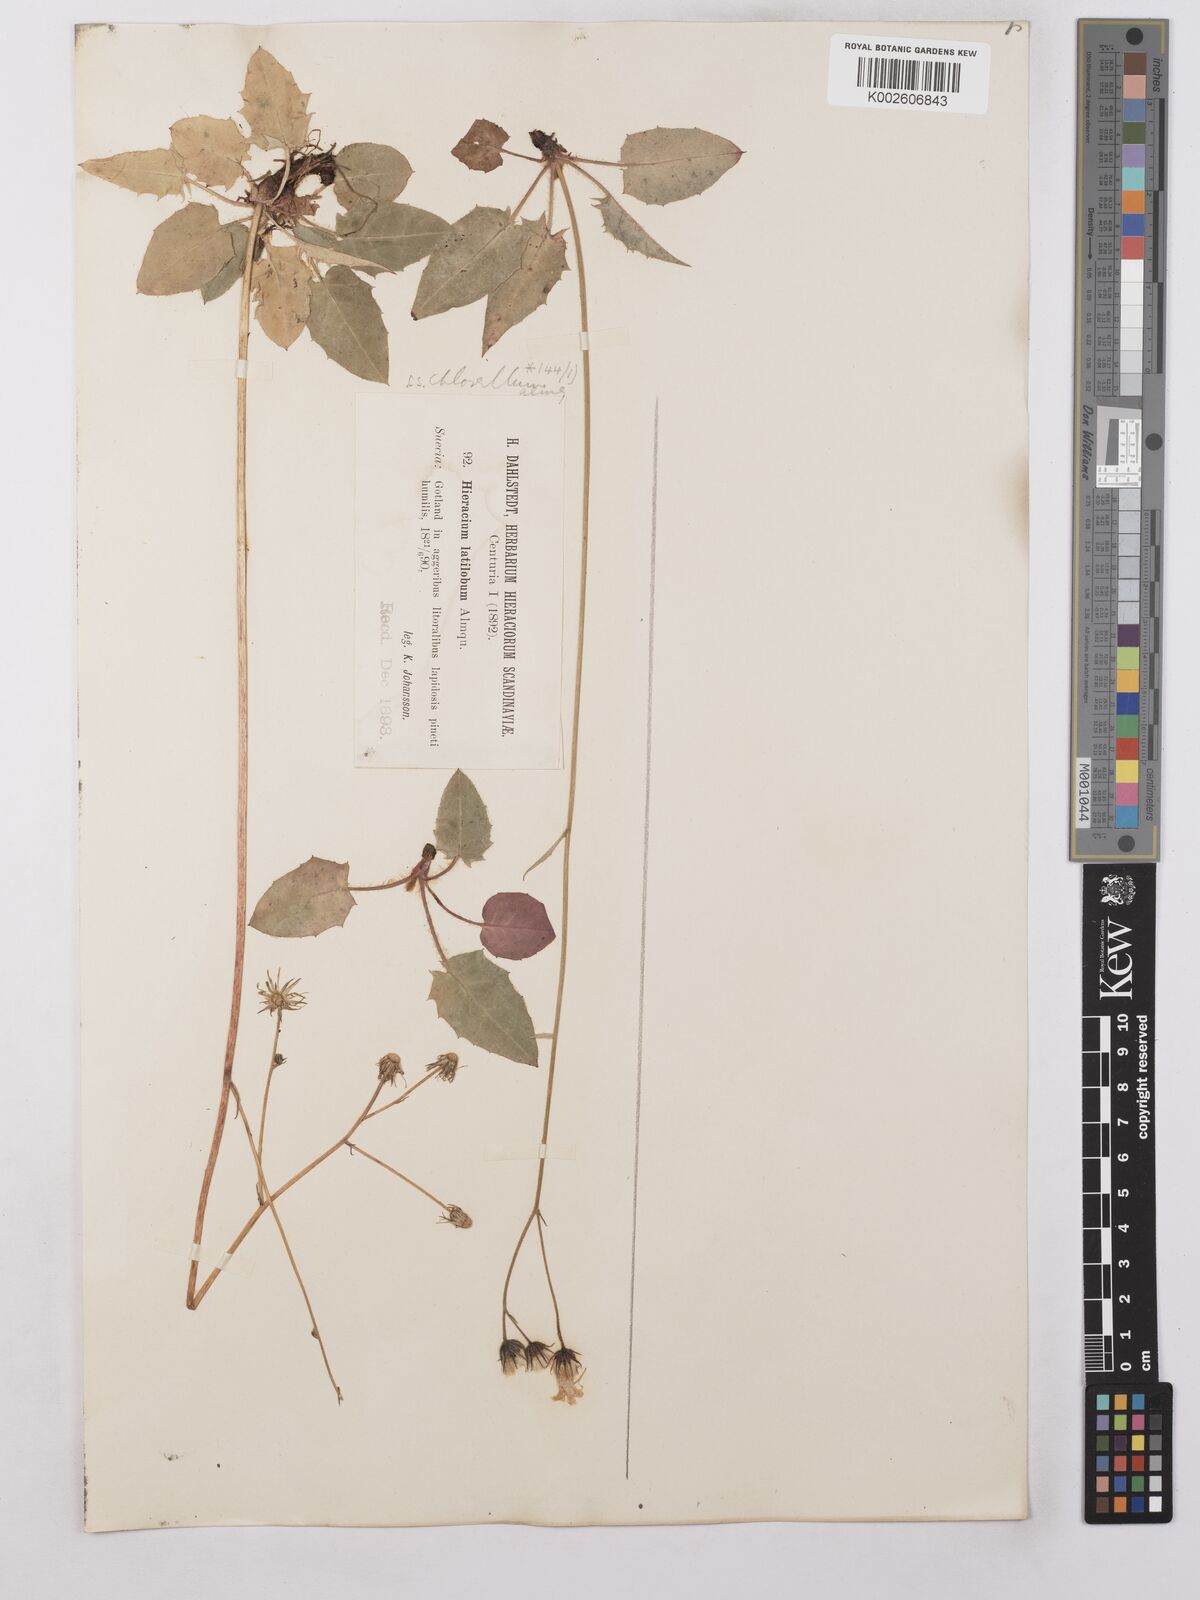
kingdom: Plantae
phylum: Tracheophyta
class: Magnoliopsida
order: Asterales
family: Asteraceae
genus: Hieracium
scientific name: Hieracium chlorellum
